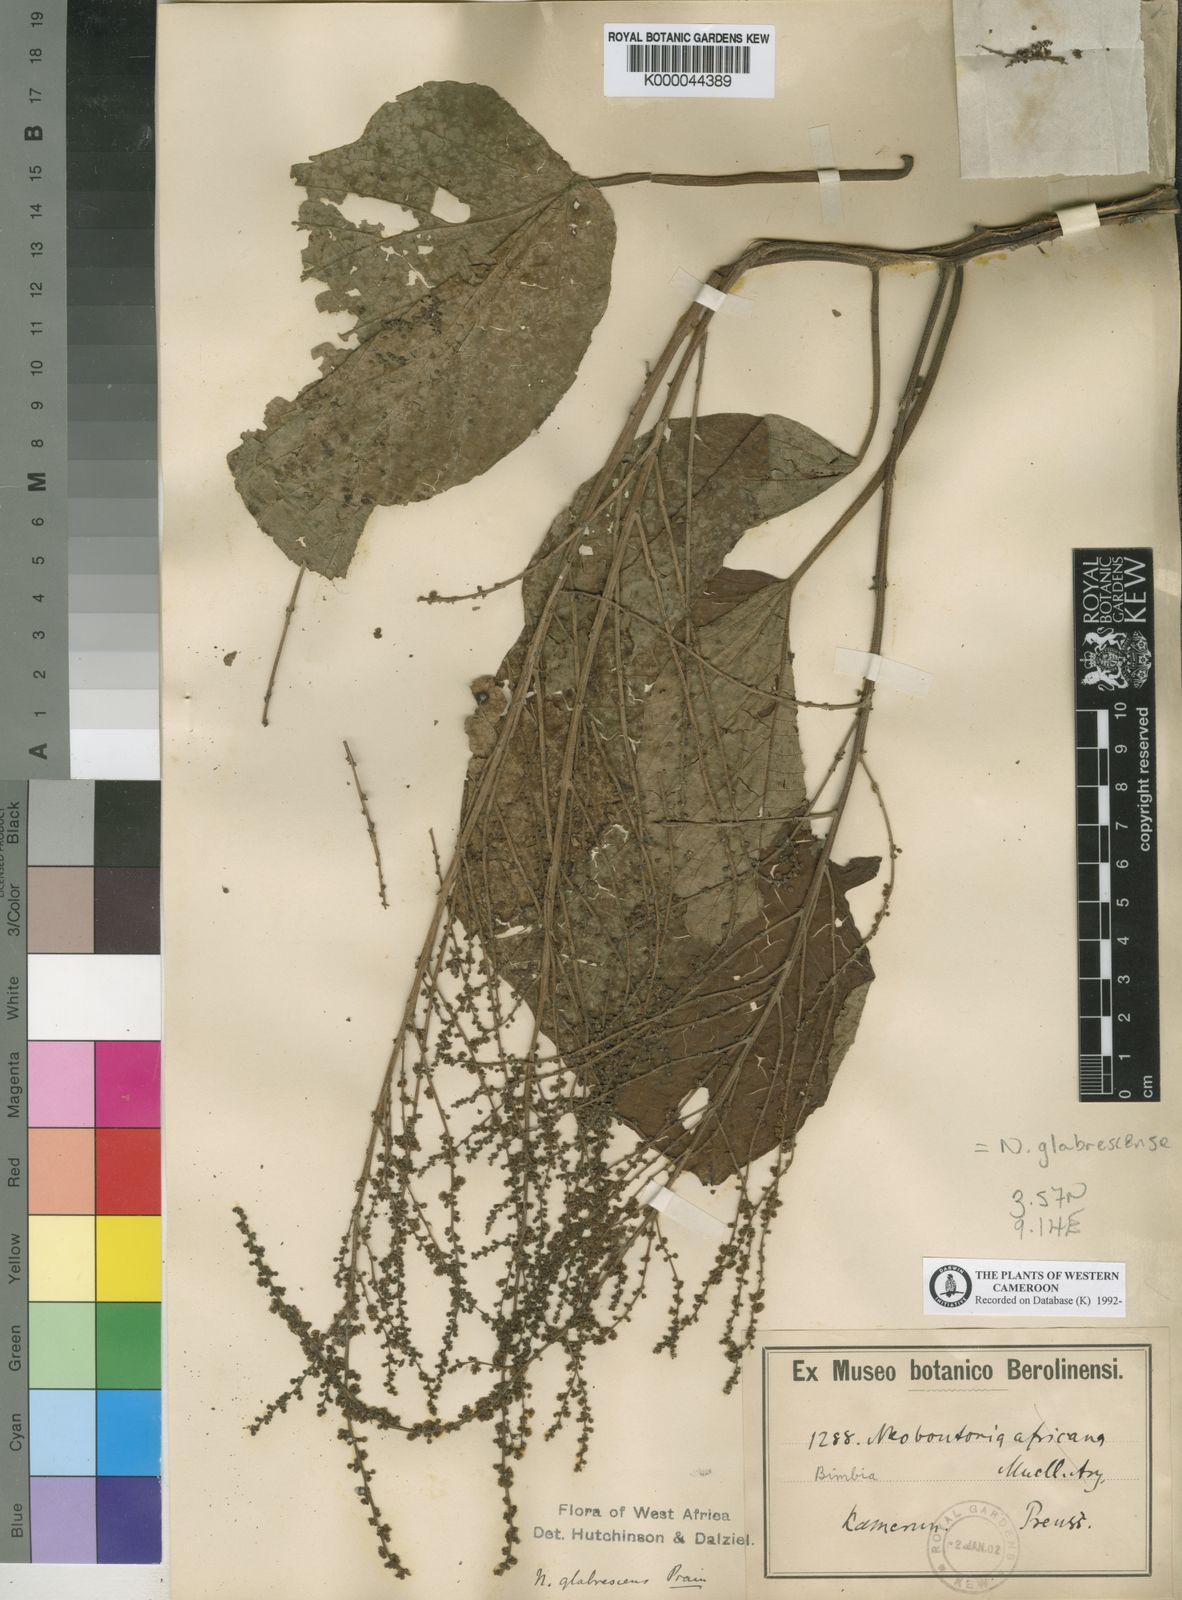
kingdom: Plantae
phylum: Tracheophyta
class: Magnoliopsida
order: Malpighiales
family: Euphorbiaceae
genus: Neoboutonia
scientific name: Neoboutonia mannii
